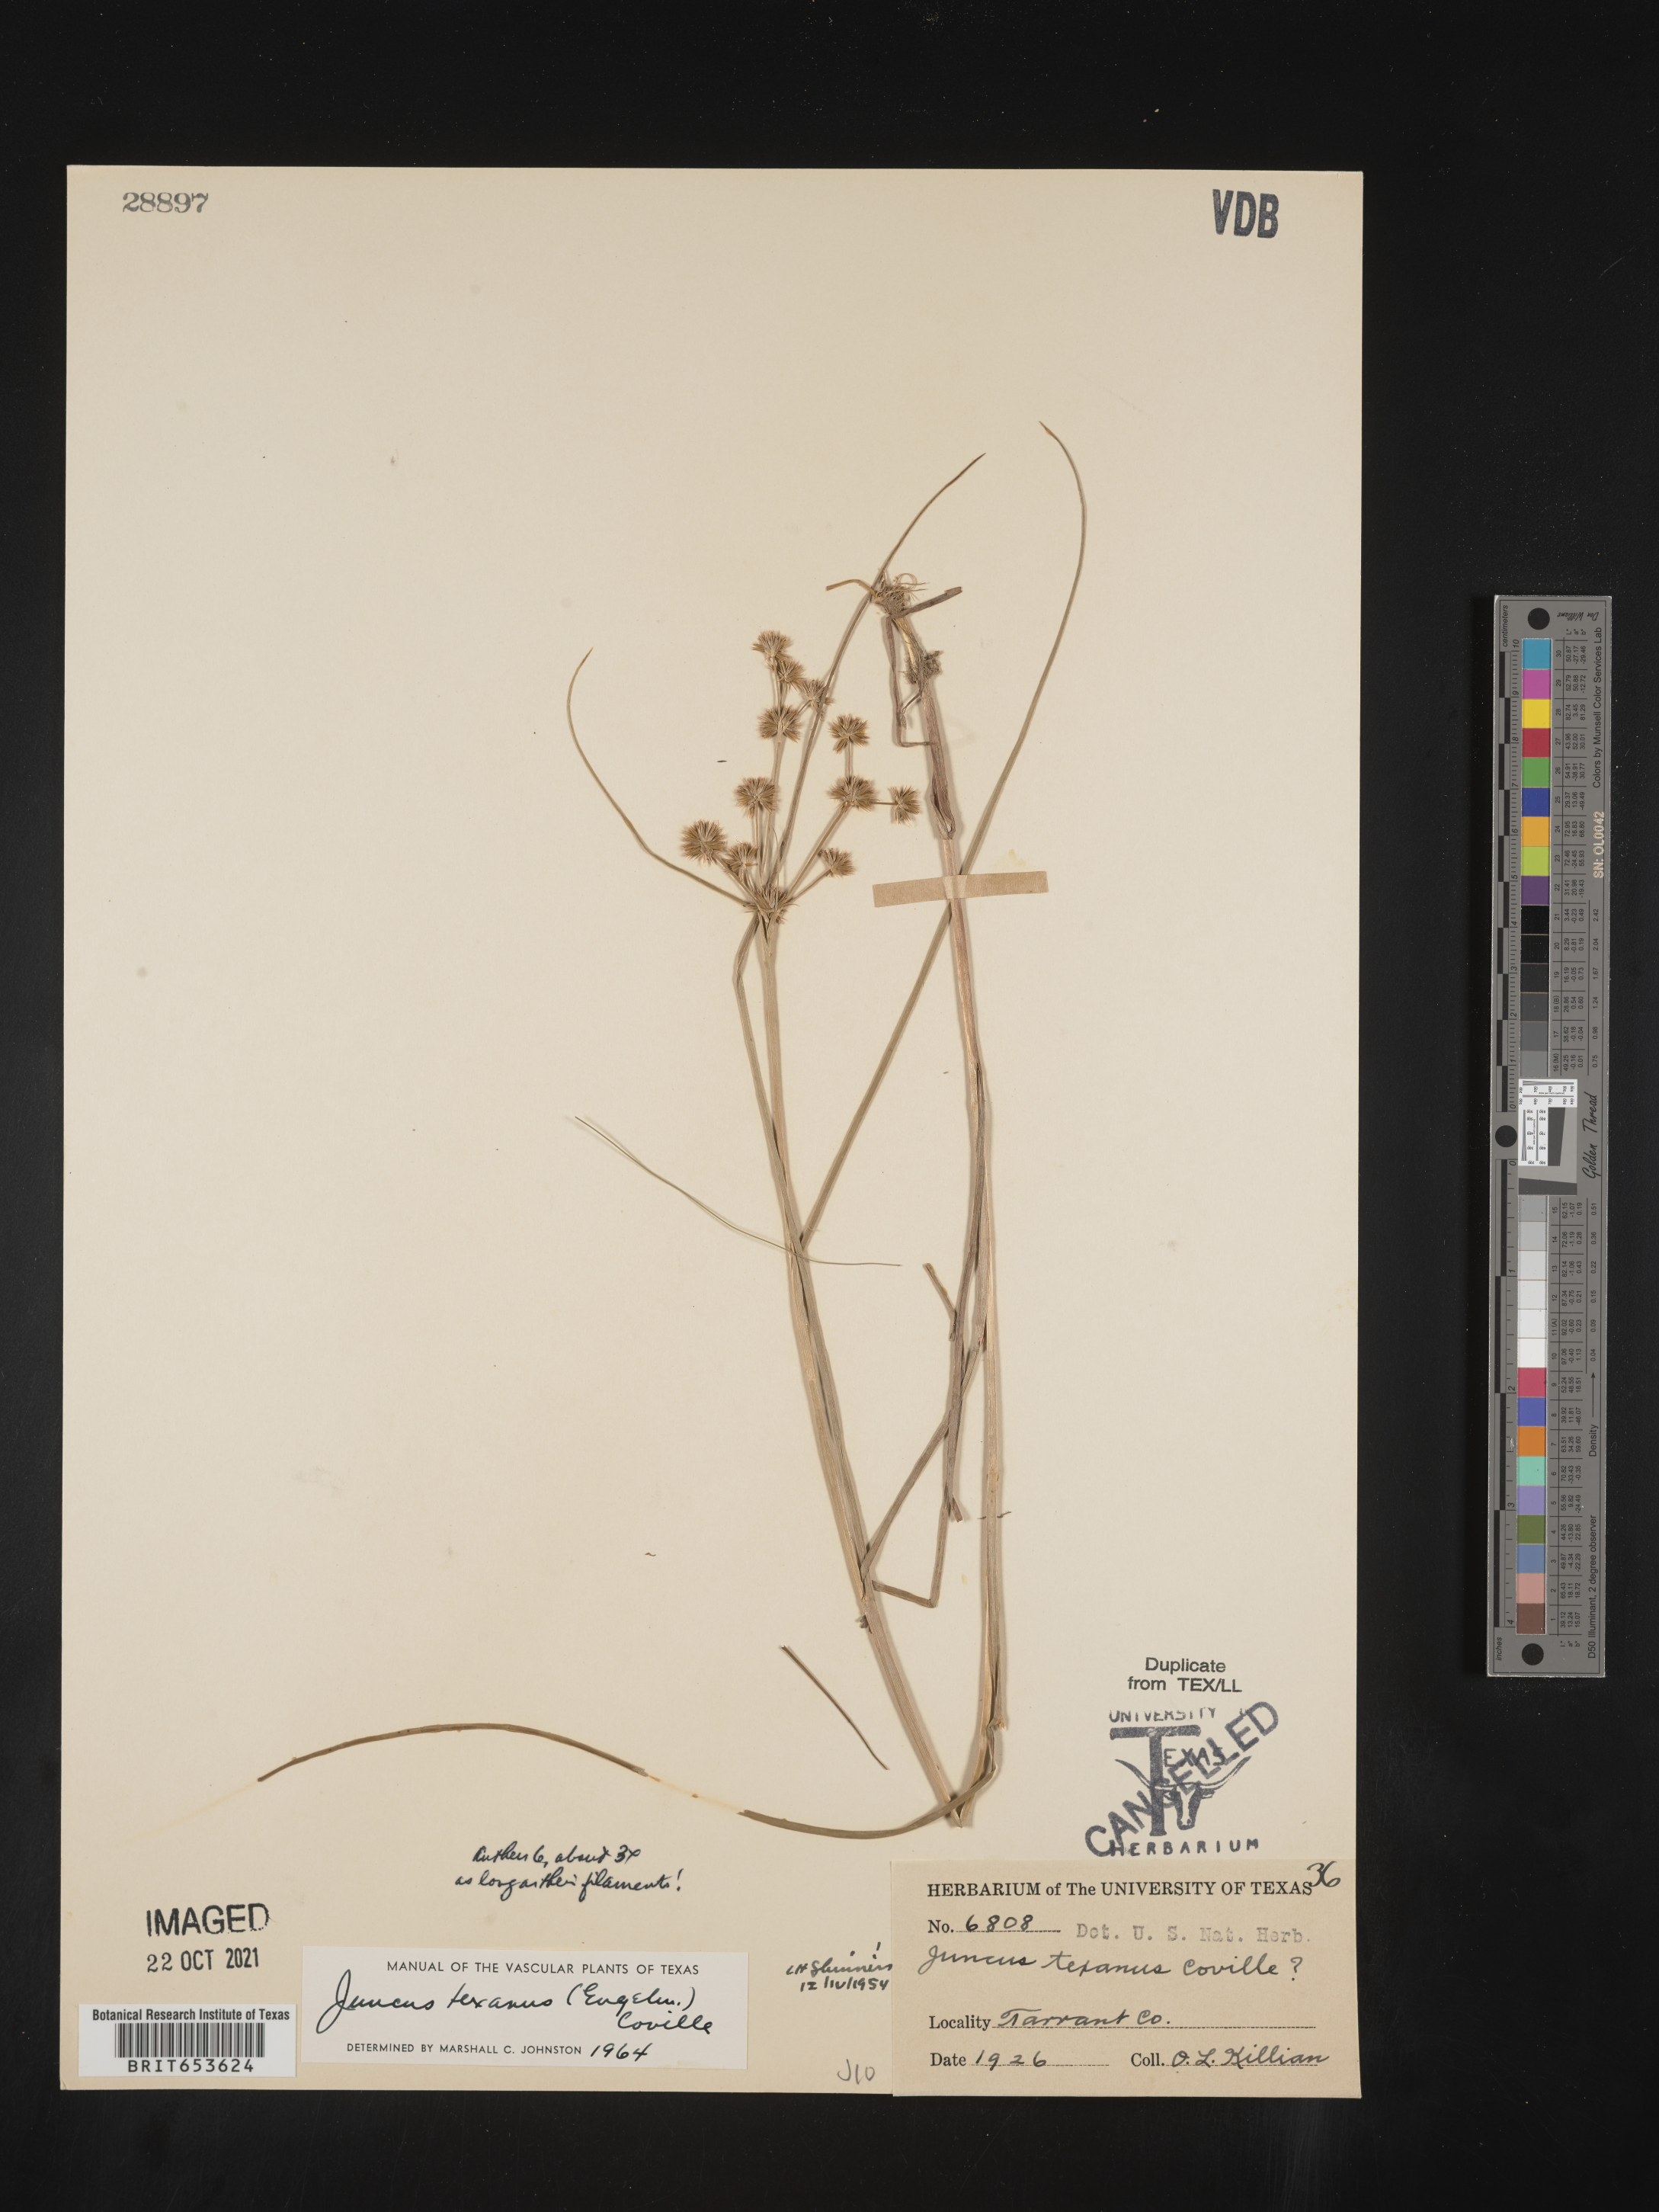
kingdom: Plantae
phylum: Tracheophyta
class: Liliopsida
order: Poales
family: Juncaceae
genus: Juncus
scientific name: Juncus texanus
